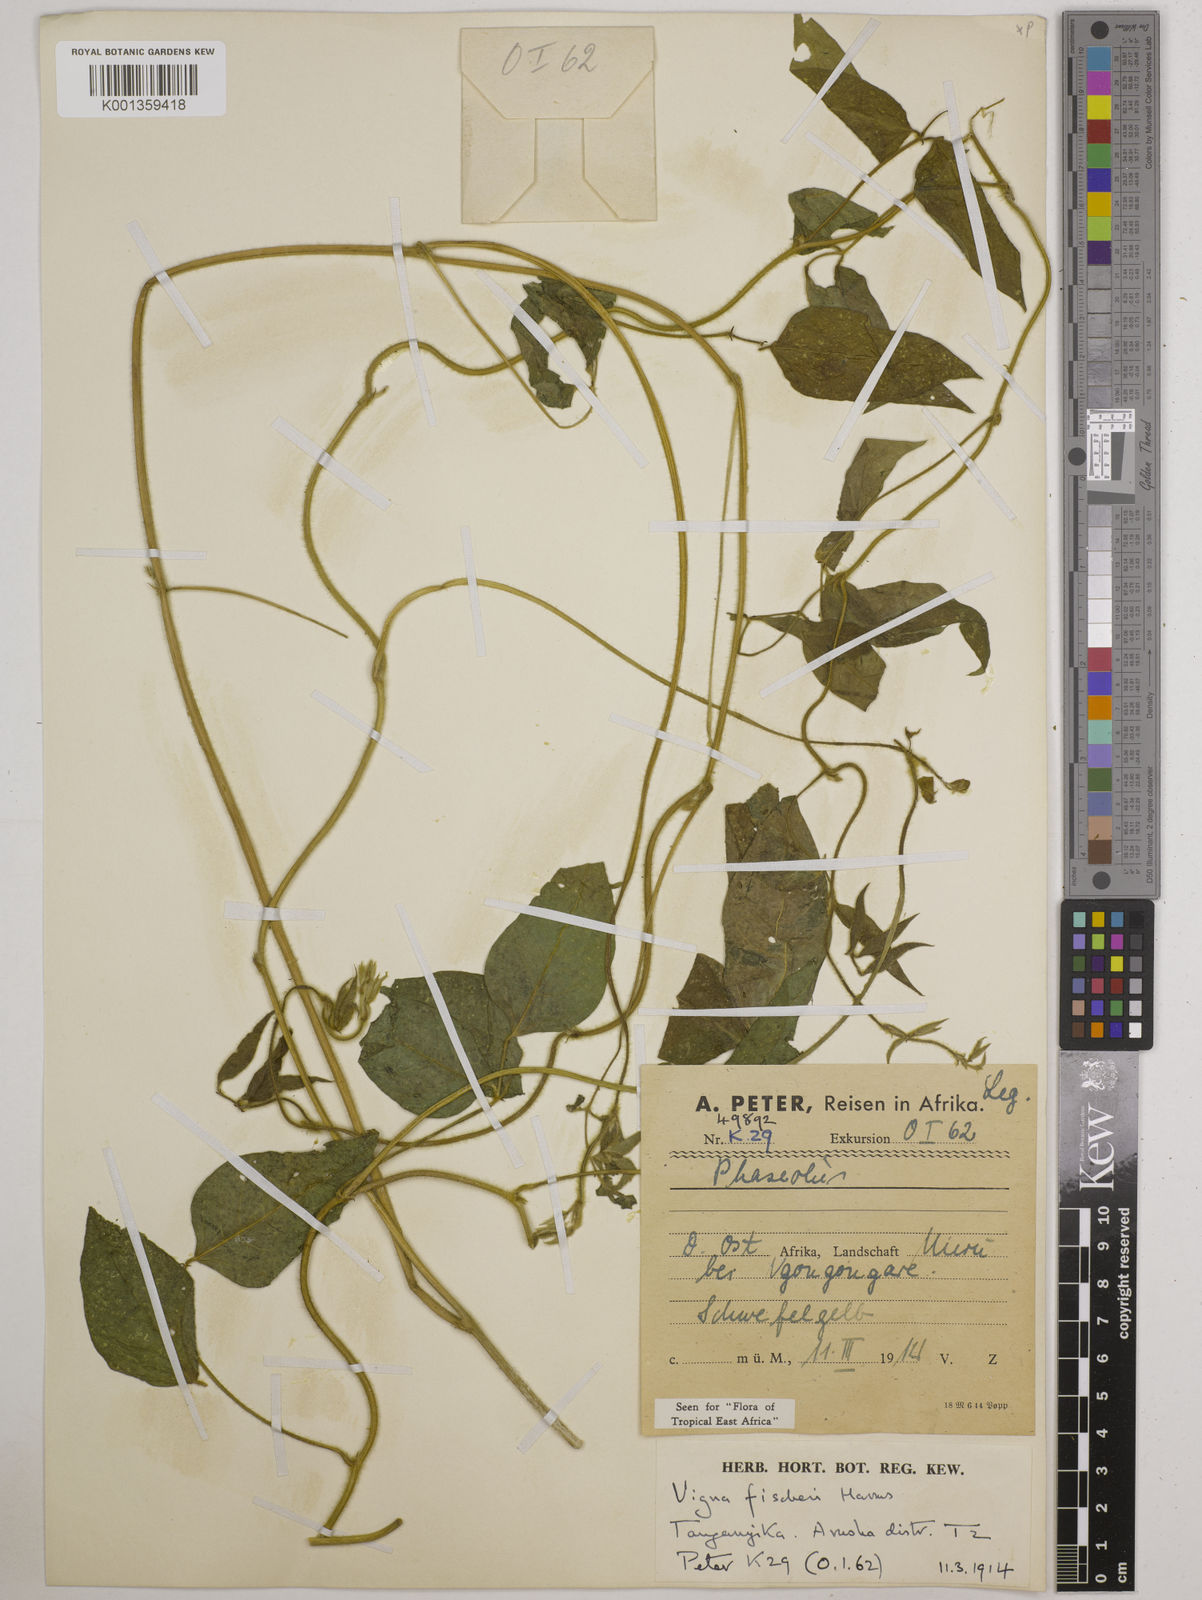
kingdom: Plantae
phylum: Tracheophyta
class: Magnoliopsida
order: Fabales
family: Fabaceae
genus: Vigna
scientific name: Vigna fischeri
